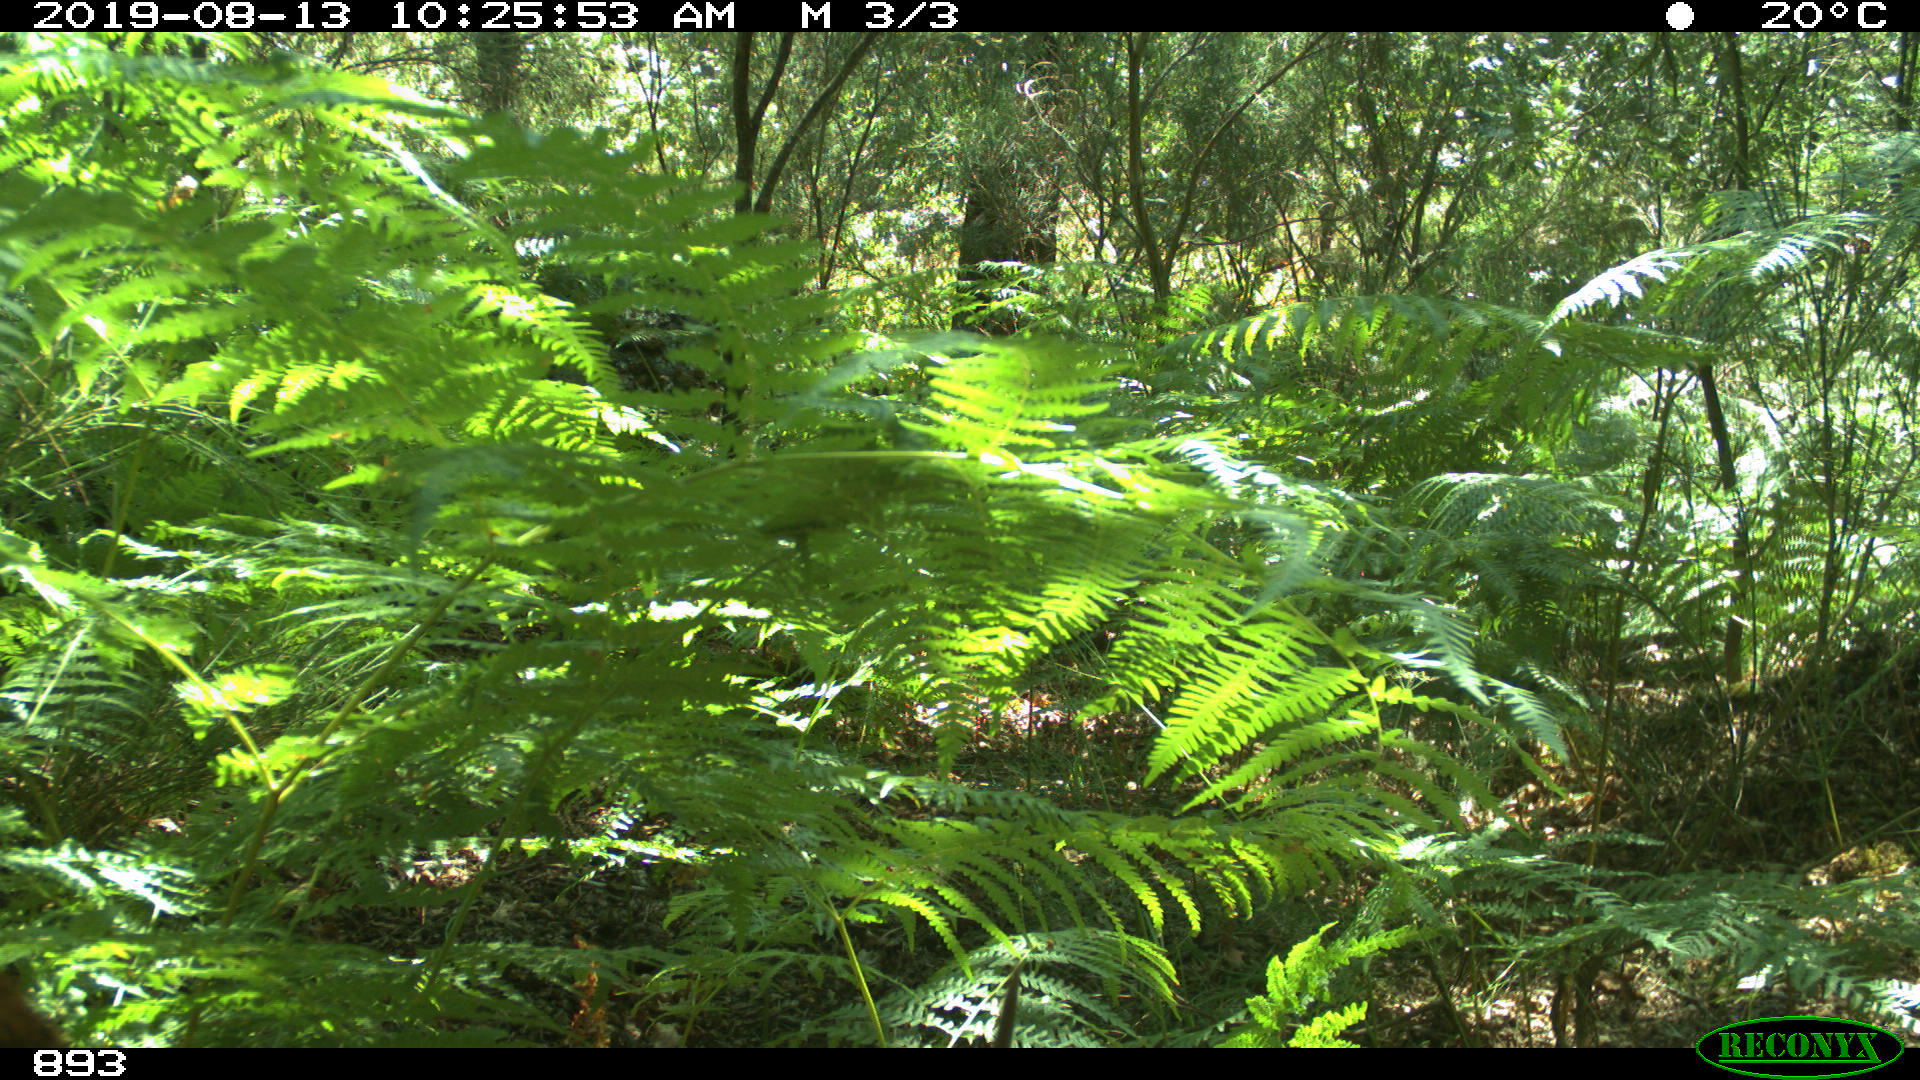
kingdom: Animalia
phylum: Chordata
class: Mammalia
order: Artiodactyla
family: Cervidae
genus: Capreolus
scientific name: Capreolus capreolus
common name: Western roe deer
